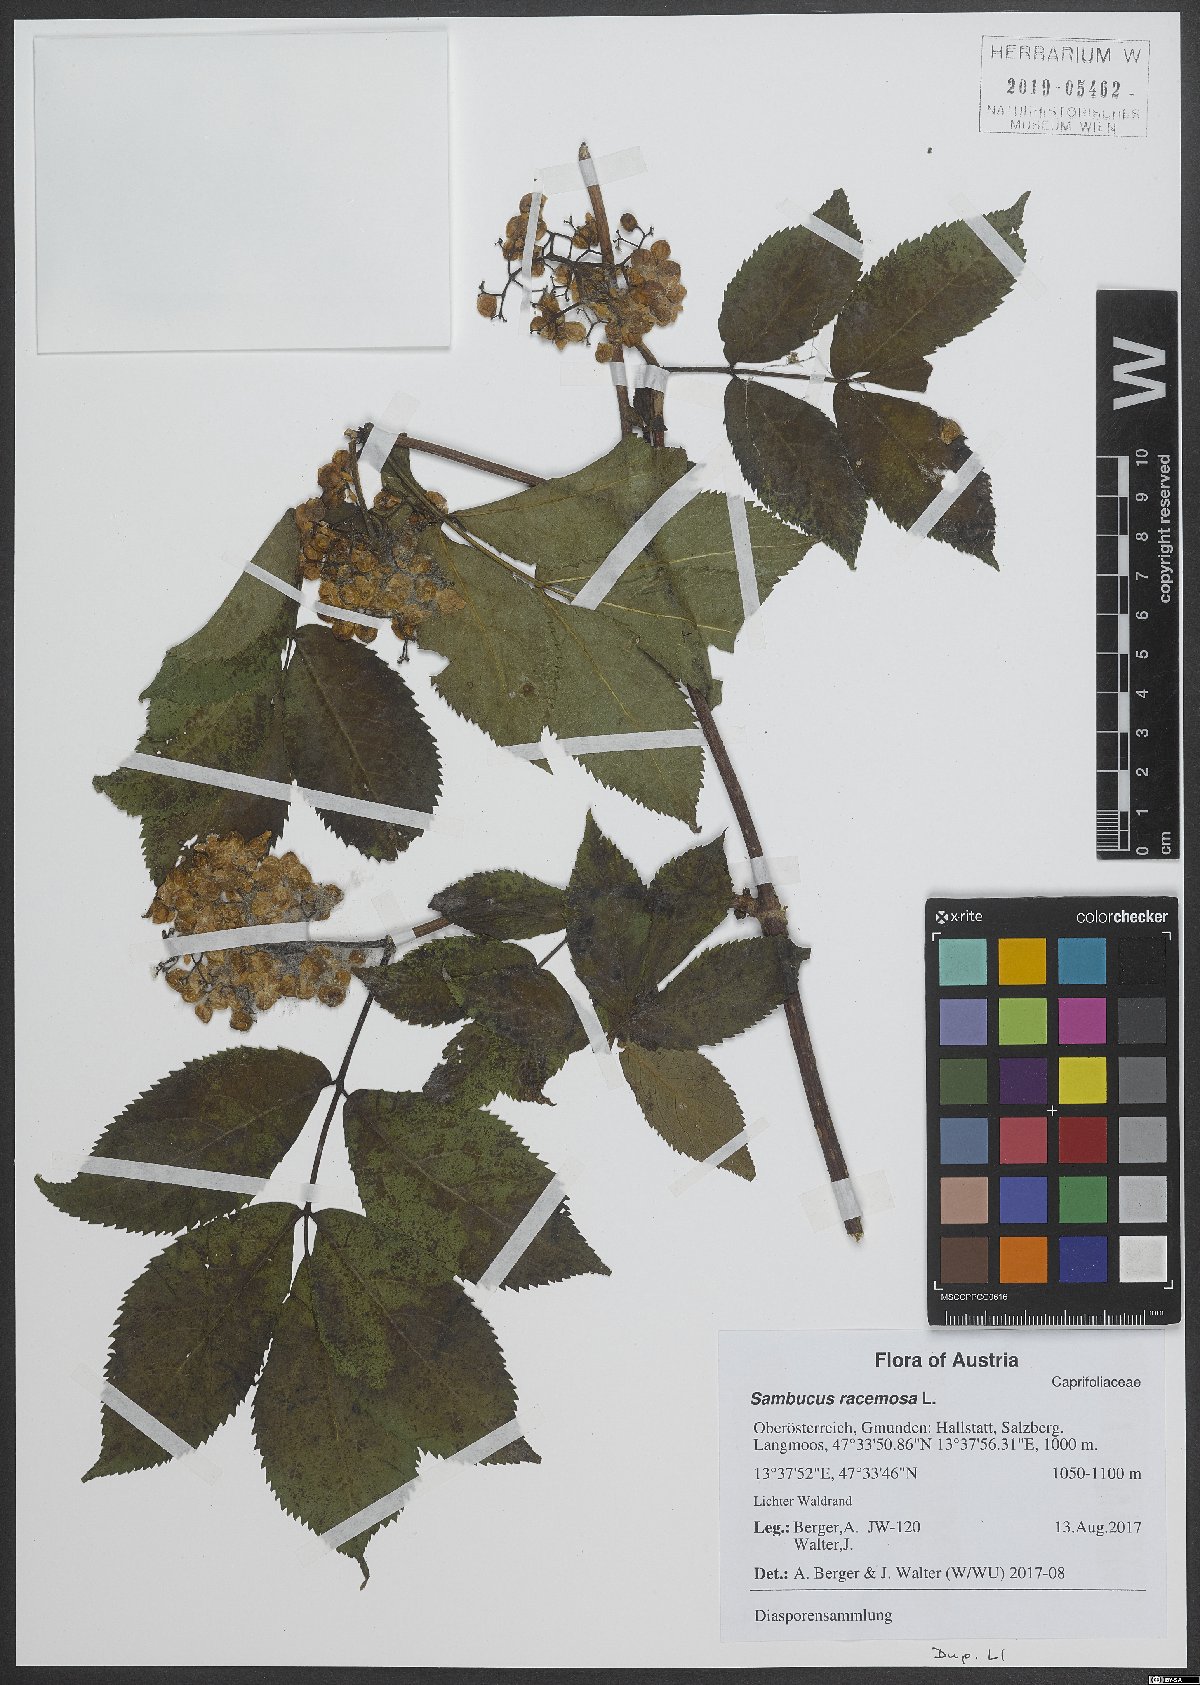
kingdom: Plantae
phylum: Tracheophyta
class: Magnoliopsida
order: Dipsacales
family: Viburnaceae
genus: Sambucus
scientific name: Sambucus racemosa
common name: Red-berried elder
